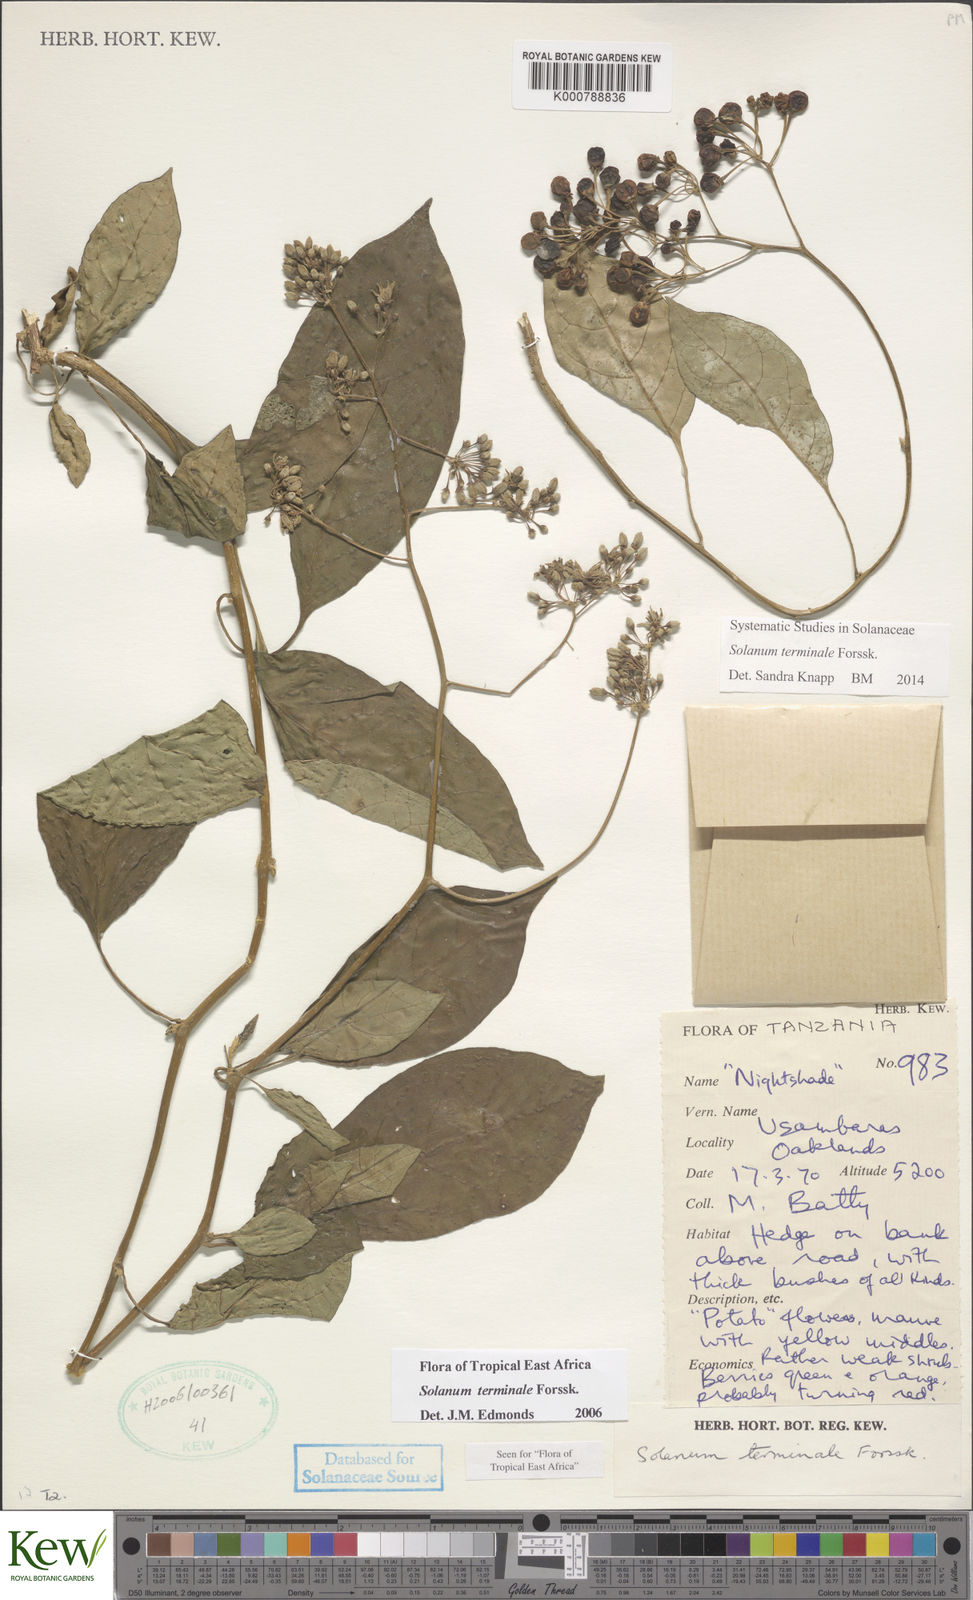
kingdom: Plantae
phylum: Tracheophyta
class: Magnoliopsida
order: Solanales
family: Solanaceae
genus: Solanum
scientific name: Solanum terminale
